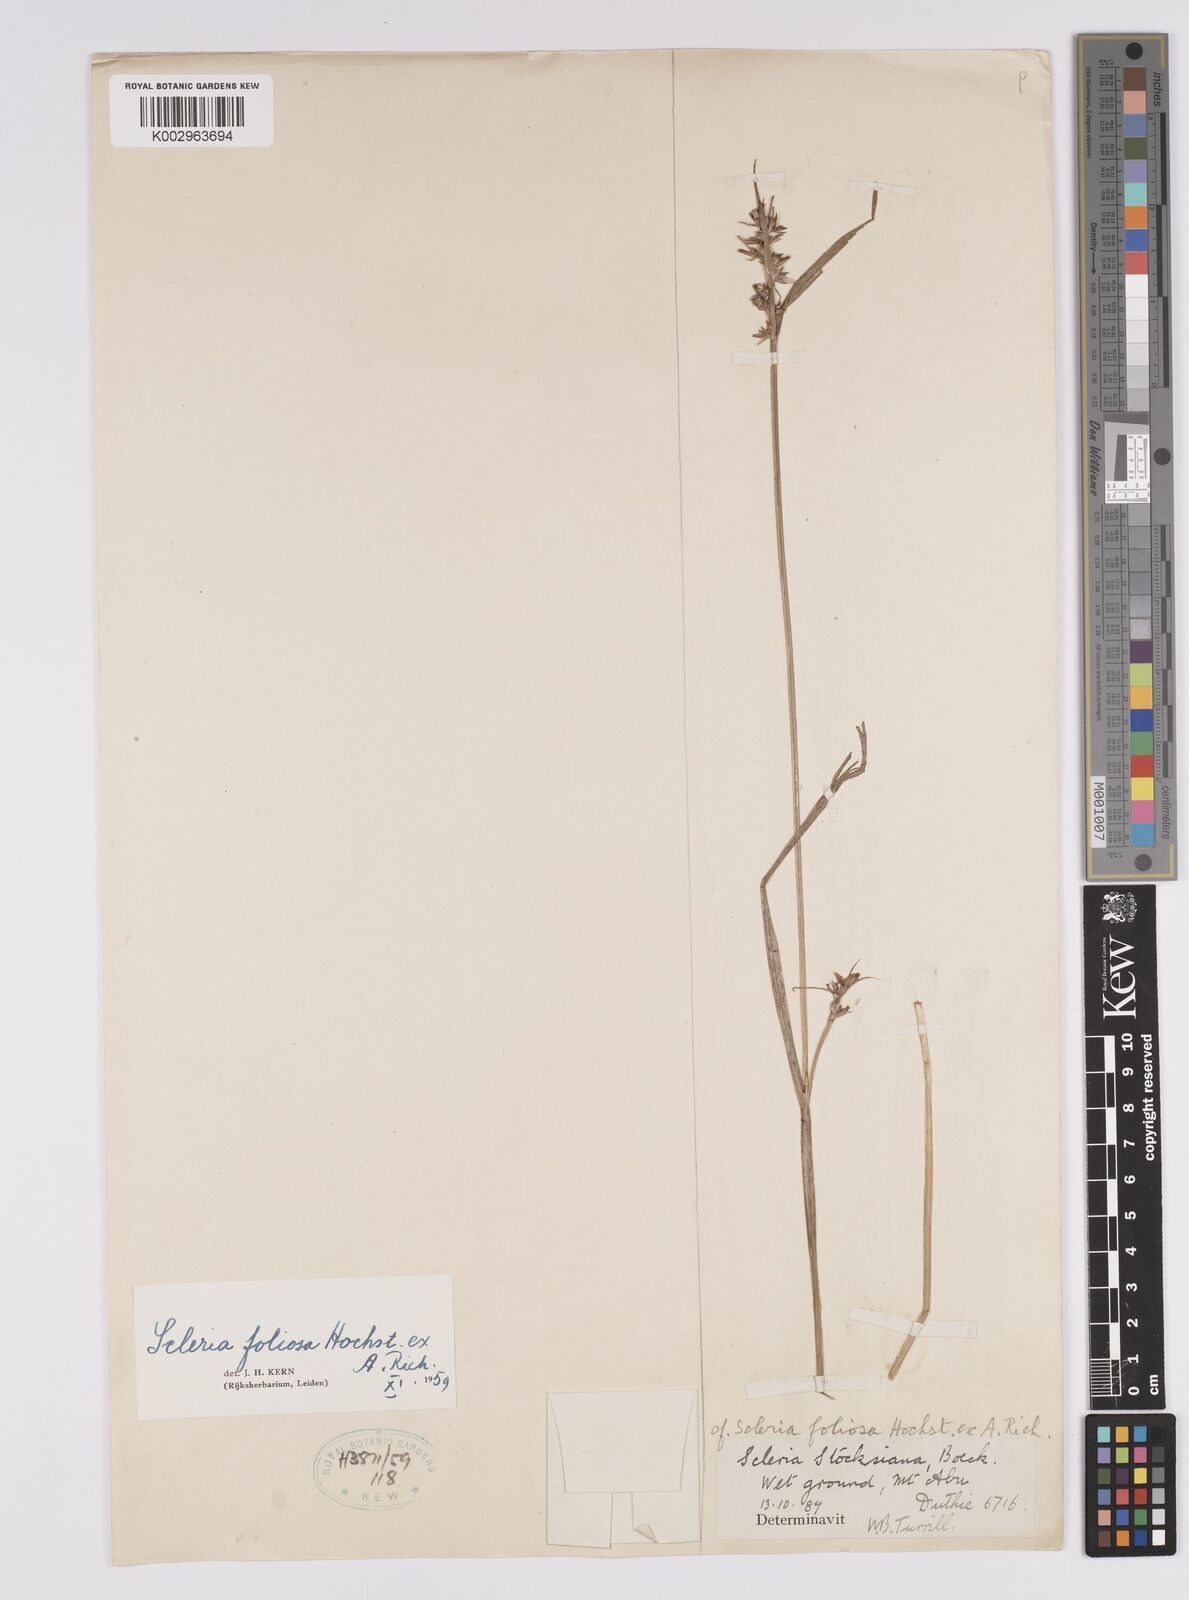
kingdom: Plantae
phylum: Tracheophyta
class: Liliopsida
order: Poales
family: Cyperaceae
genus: Scleria
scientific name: Scleria foliosa
